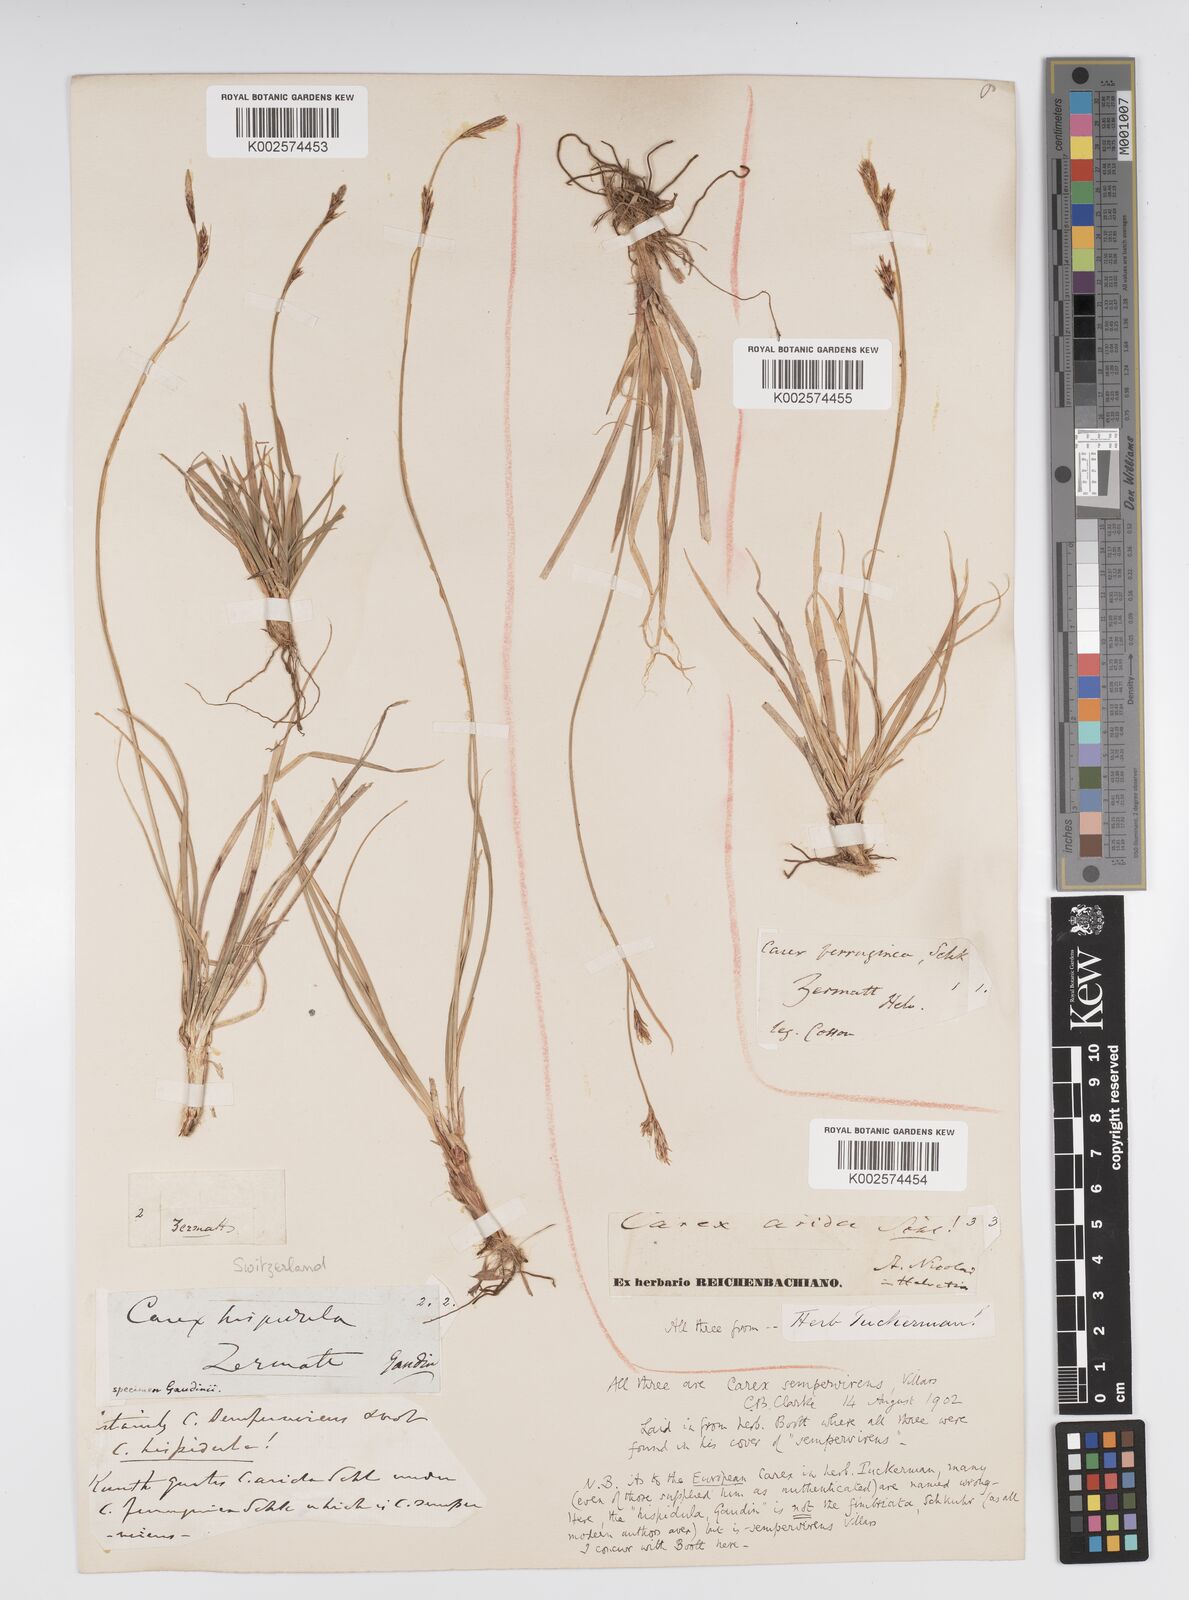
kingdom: Plantae
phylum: Tracheophyta
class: Liliopsida
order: Poales
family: Cyperaceae
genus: Carex
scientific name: Carex sempervirens
